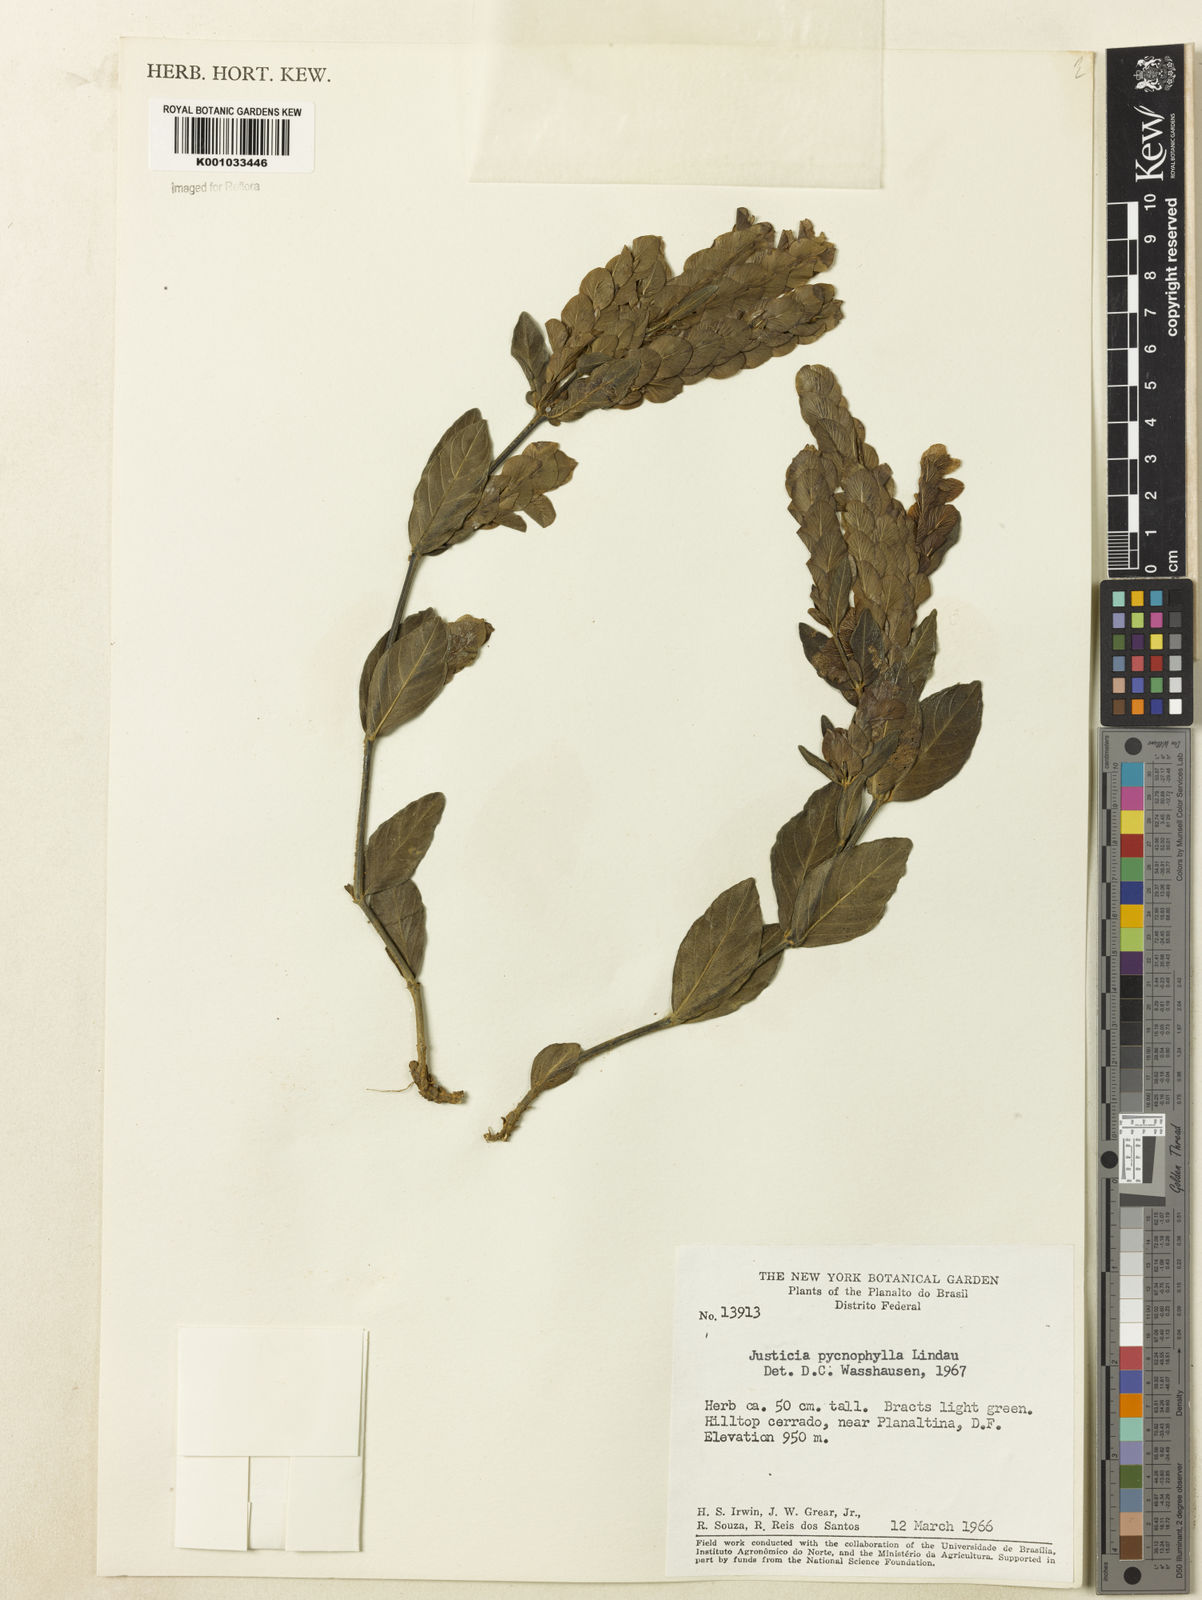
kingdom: Plantae
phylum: Tracheophyta
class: Magnoliopsida
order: Lamiales
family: Acanthaceae
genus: Justicia
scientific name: Justicia pycnophylla
